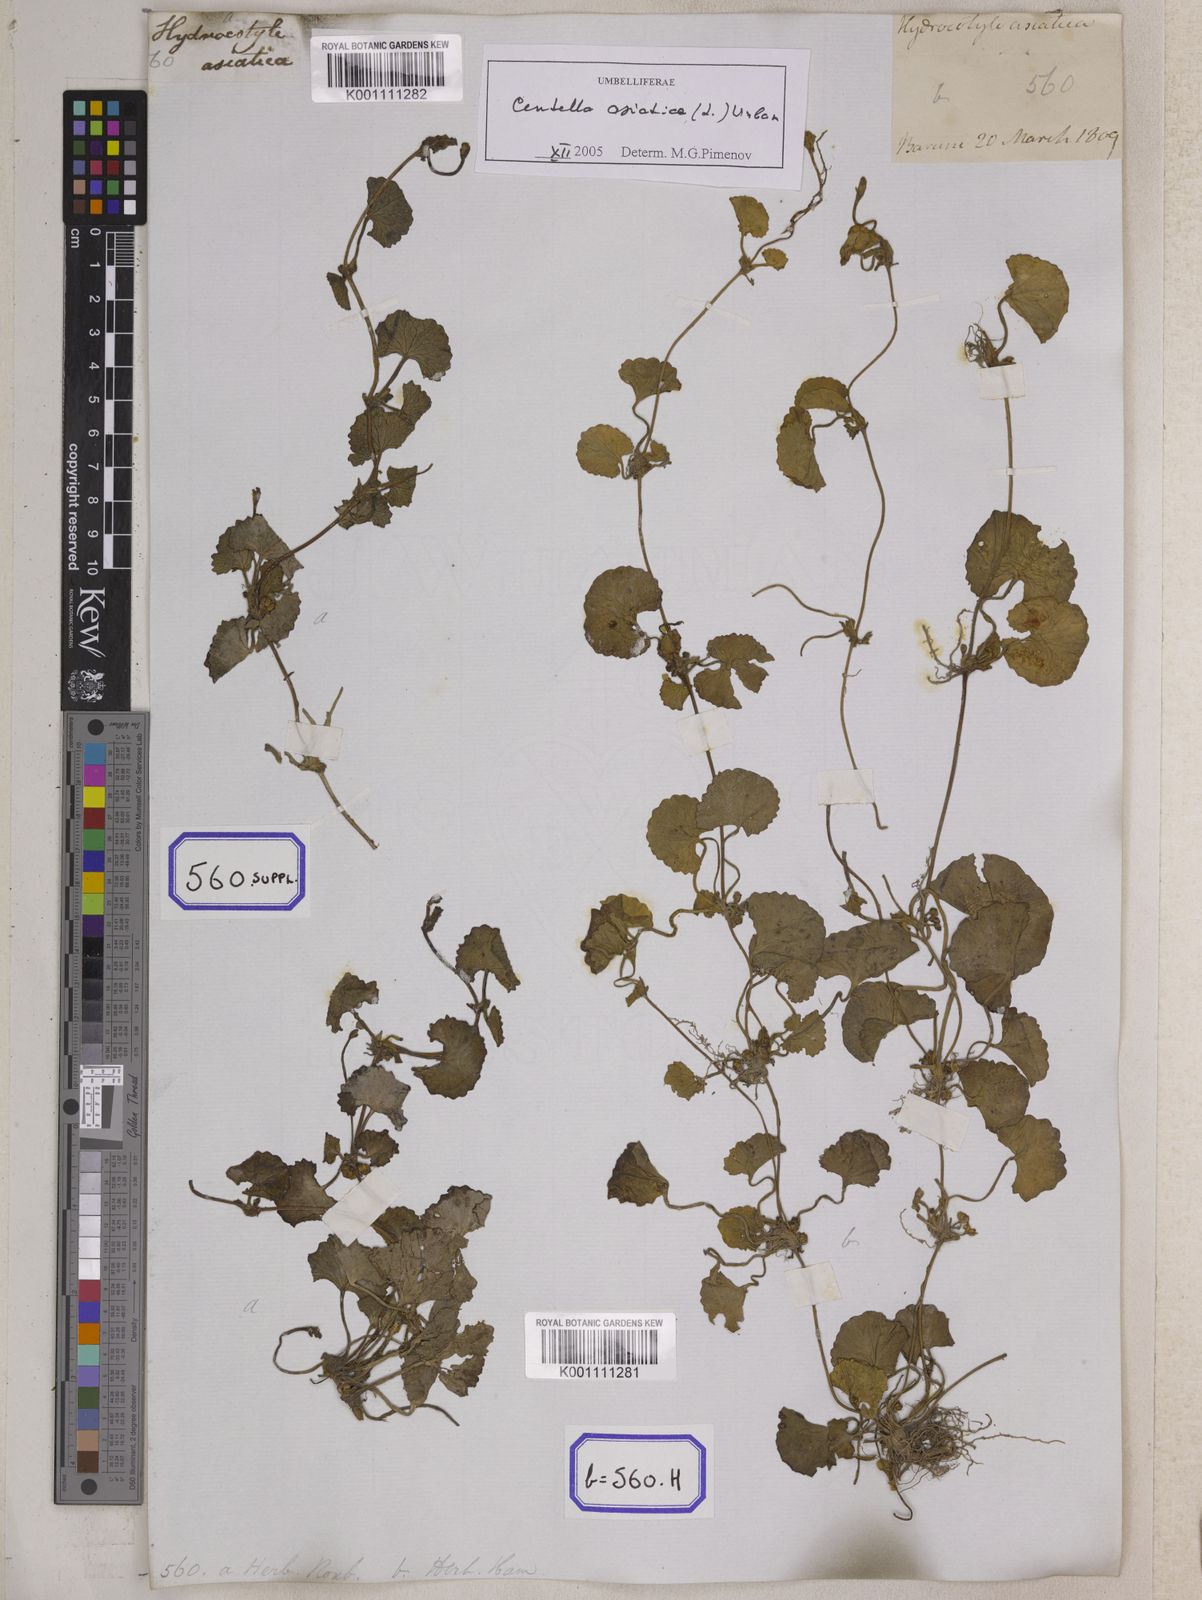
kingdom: Plantae
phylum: Tracheophyta
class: Magnoliopsida
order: Apiales
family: Apiaceae
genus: Centella
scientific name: Centella asiatica
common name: Spadeleaf
